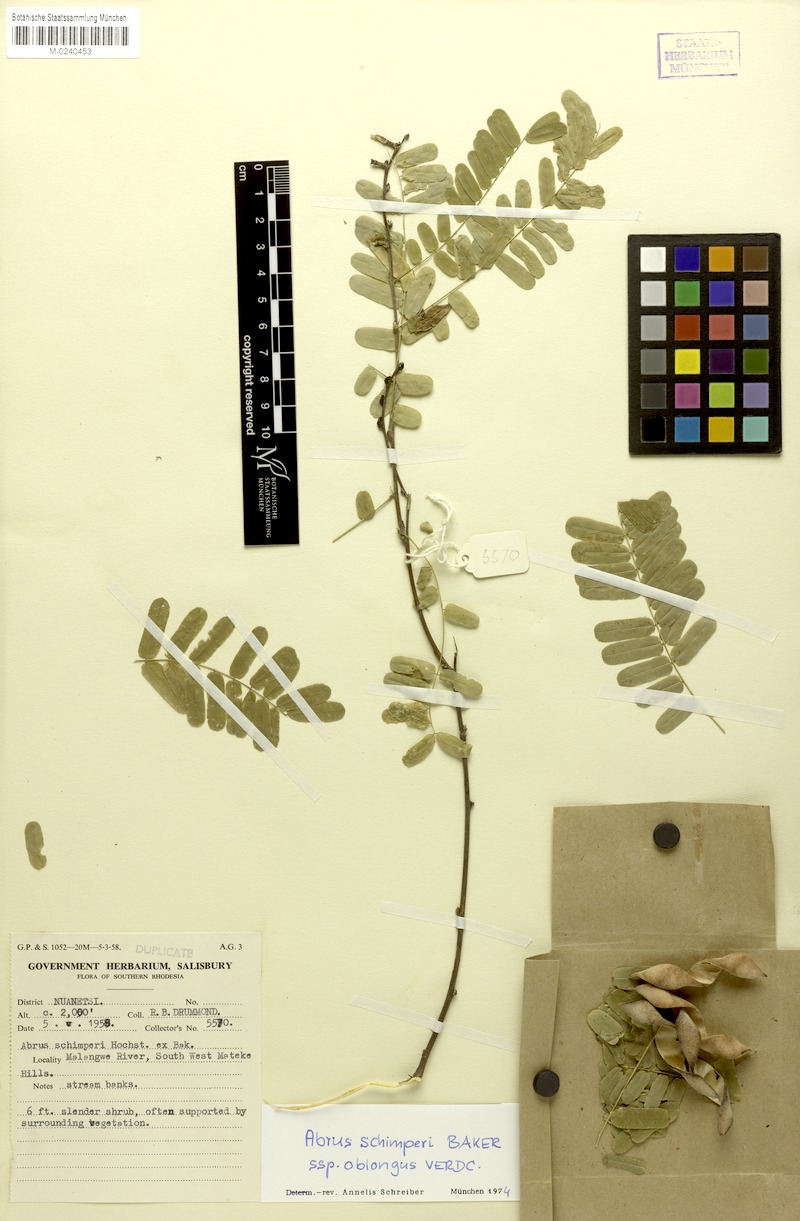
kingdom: Plantae
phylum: Tracheophyta
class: Magnoliopsida
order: Fabales
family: Fabaceae
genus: Abrus
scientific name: Abrus fruticulosus
